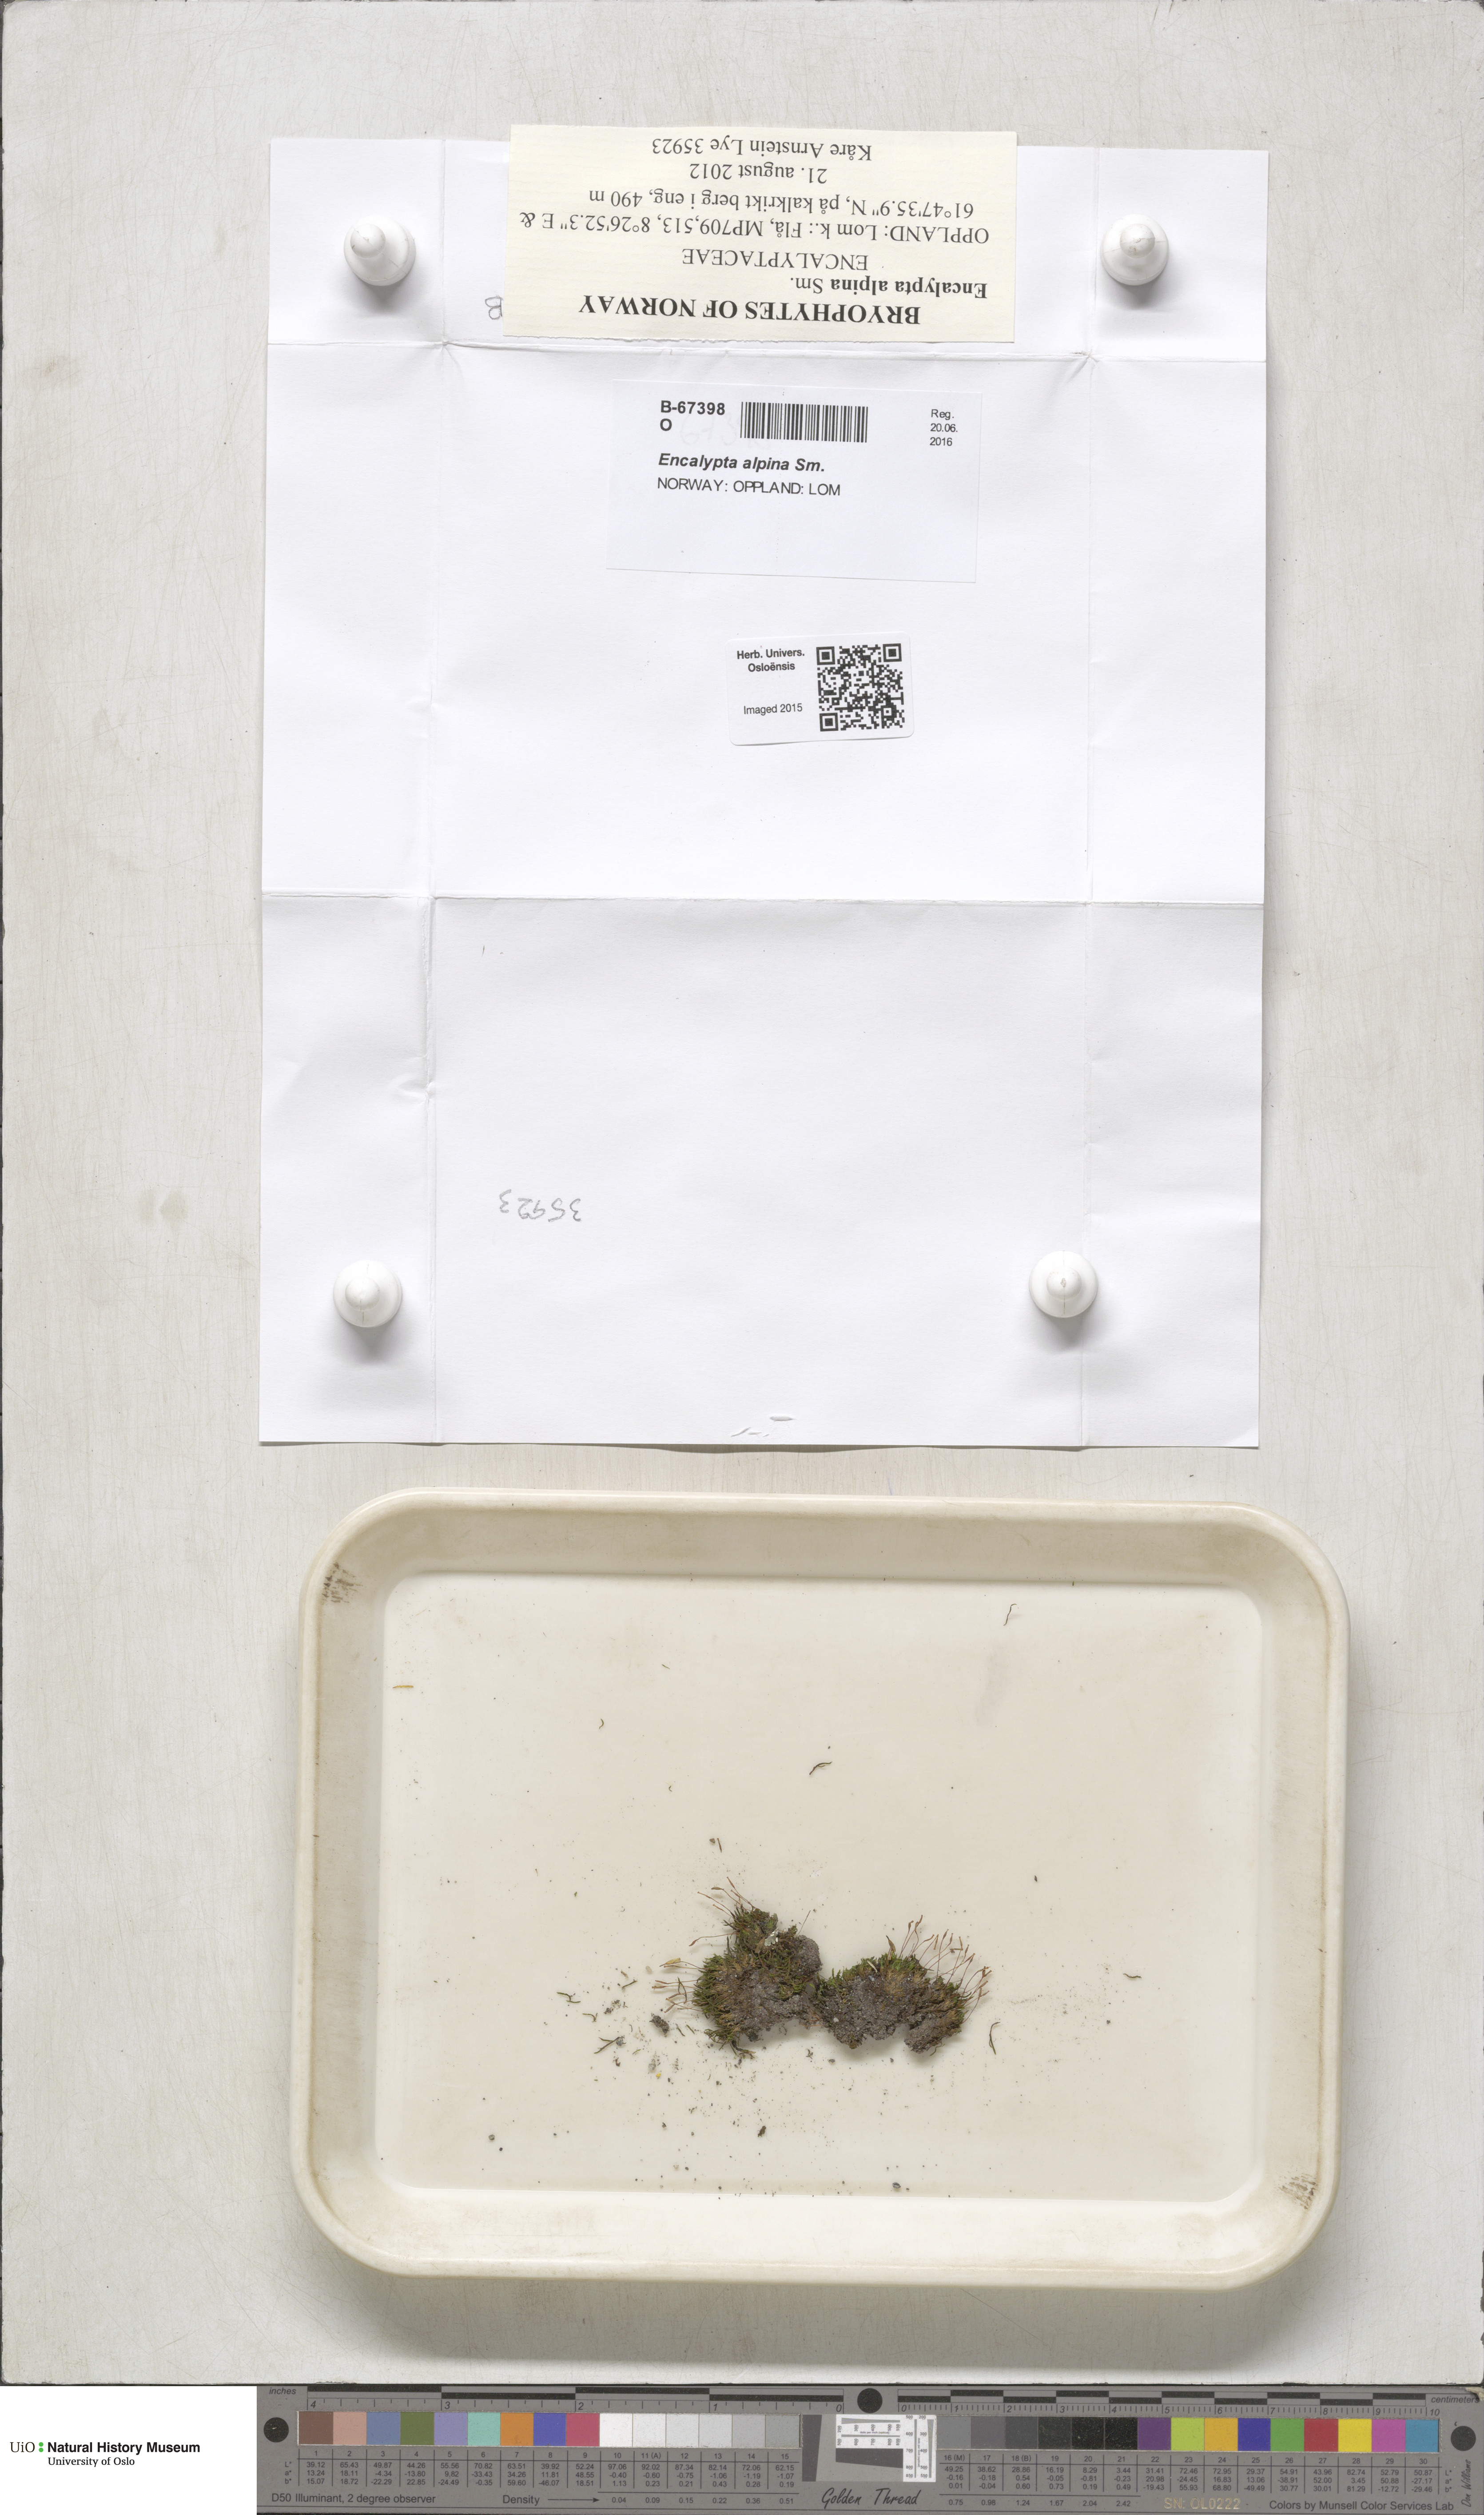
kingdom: Plantae
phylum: Bryophyta
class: Bryopsida
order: Encalyptales
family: Encalyptaceae
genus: Encalypta
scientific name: Encalypta alpina
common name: Alpine extinguisher-moss
